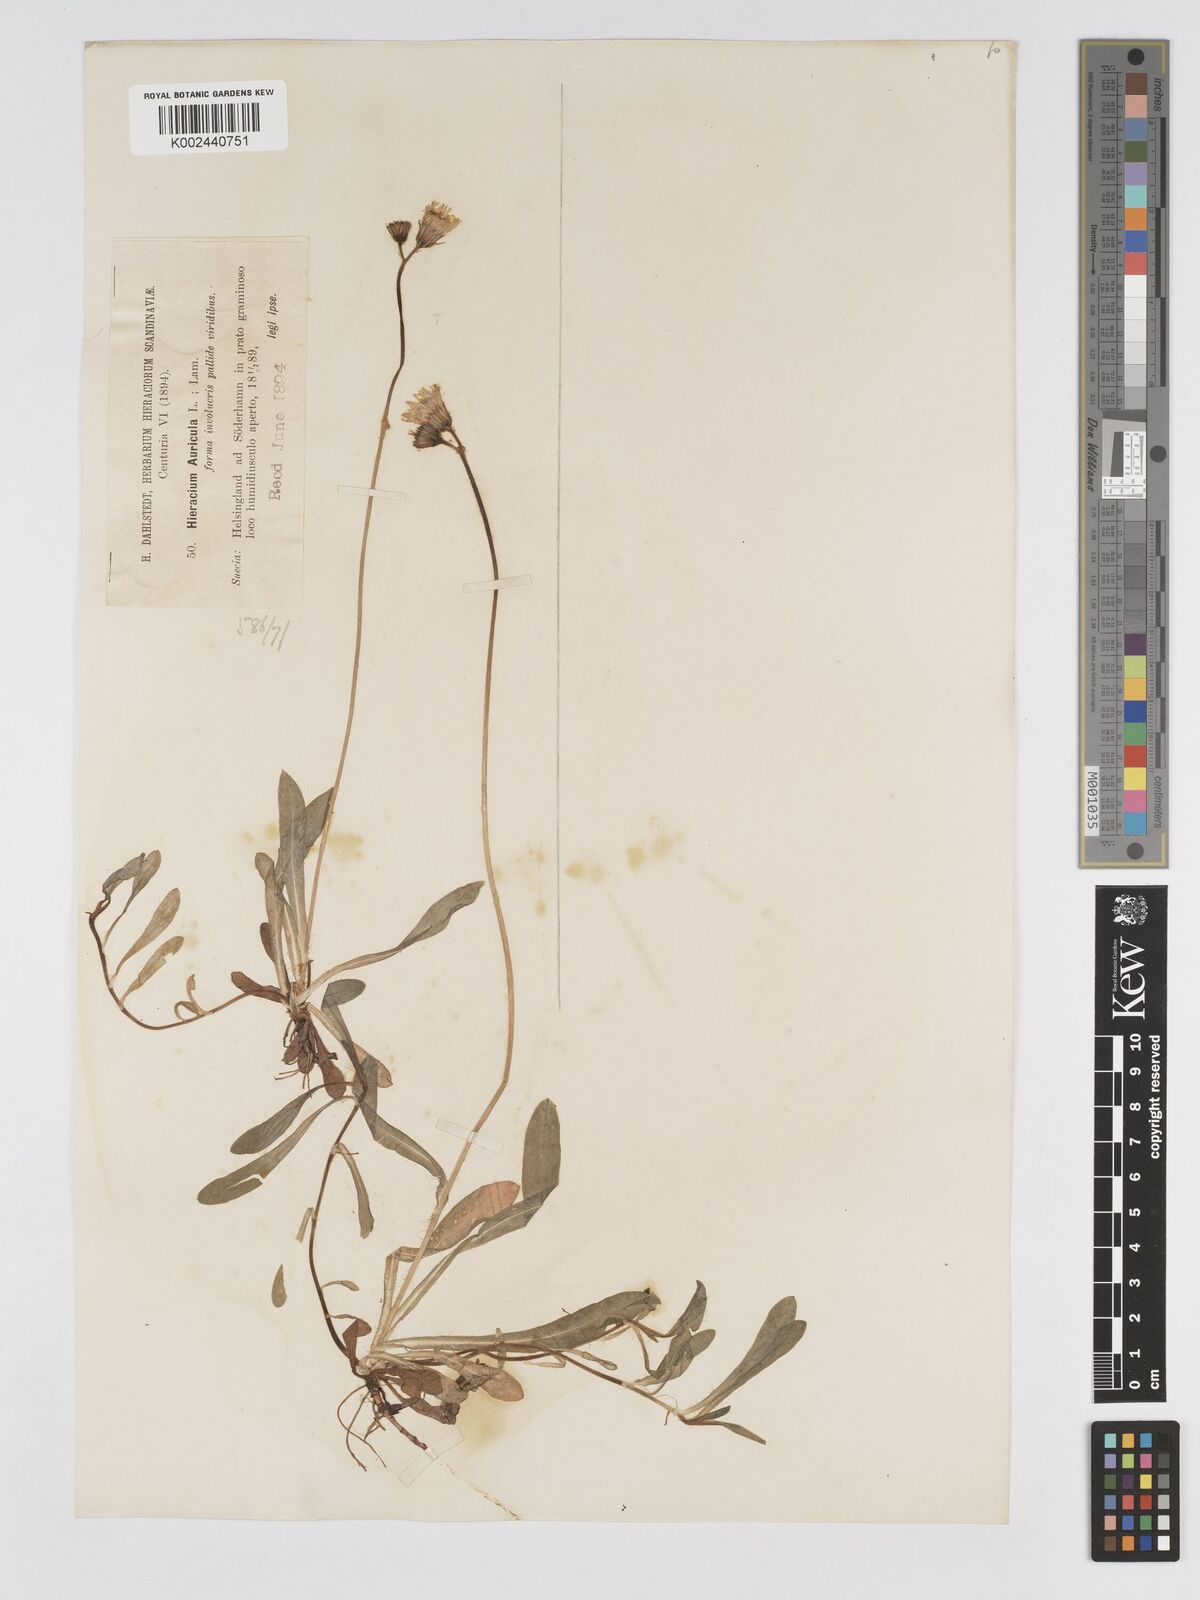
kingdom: Plantae
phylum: Tracheophyta
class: Magnoliopsida
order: Asterales
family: Asteraceae
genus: Pilosella
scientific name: Pilosella floribunda
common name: Glaucous hawkweed
